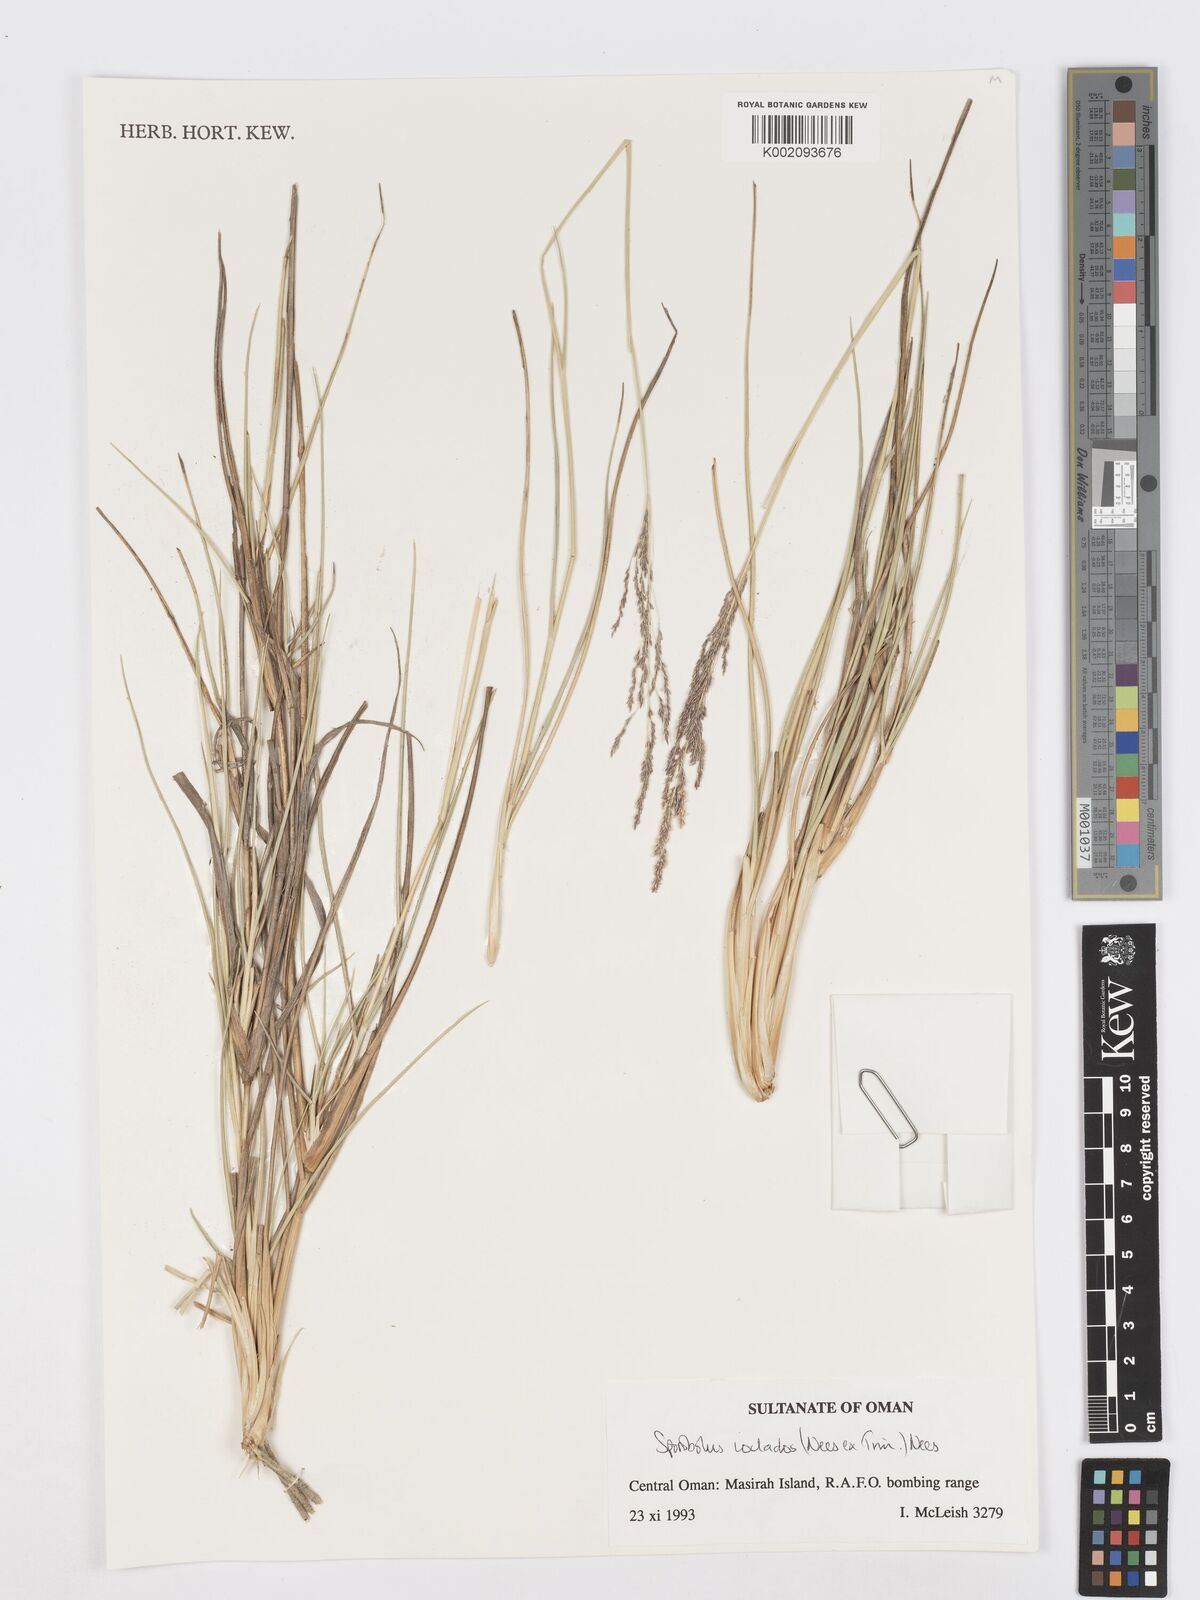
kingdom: Plantae
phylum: Tracheophyta
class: Liliopsida
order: Poales
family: Poaceae
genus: Sporobolus
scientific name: Sporobolus ioclados
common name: Pan dropseed
